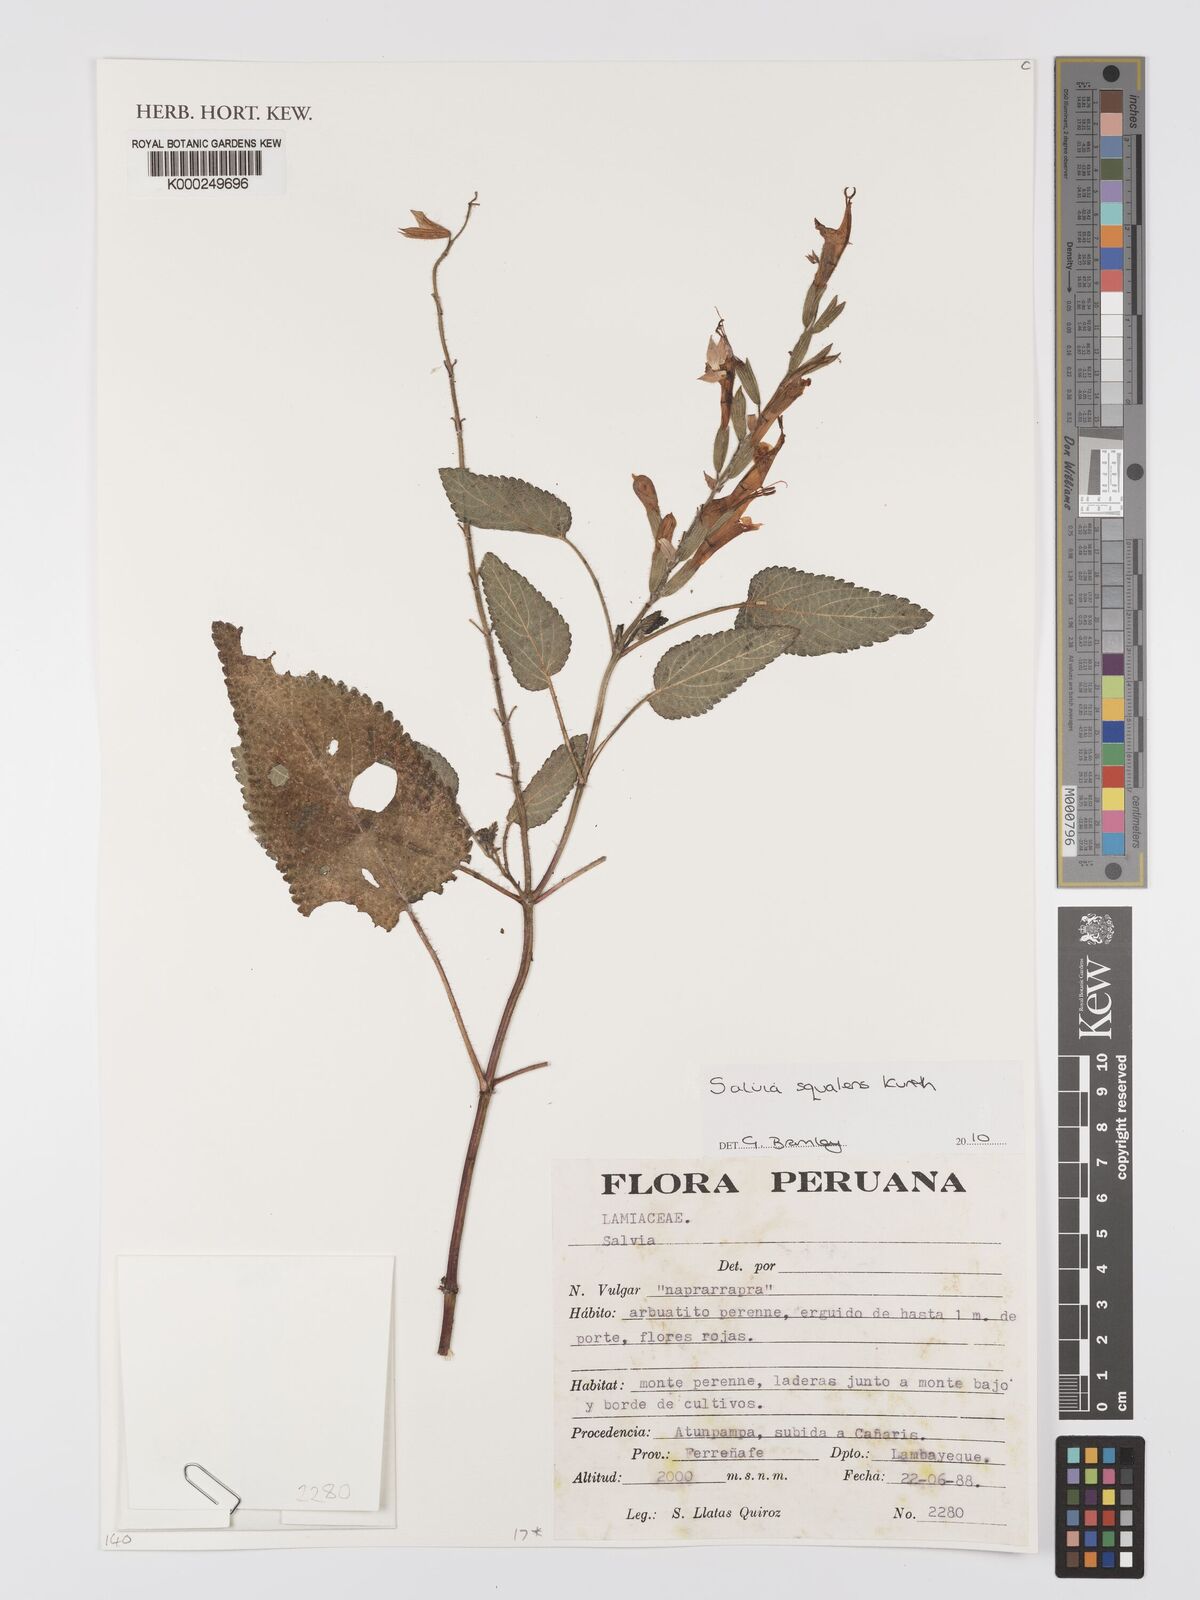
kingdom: Plantae
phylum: Tracheophyta
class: Magnoliopsida
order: Lamiales
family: Lamiaceae
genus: Salvia
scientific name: Salvia squalens
